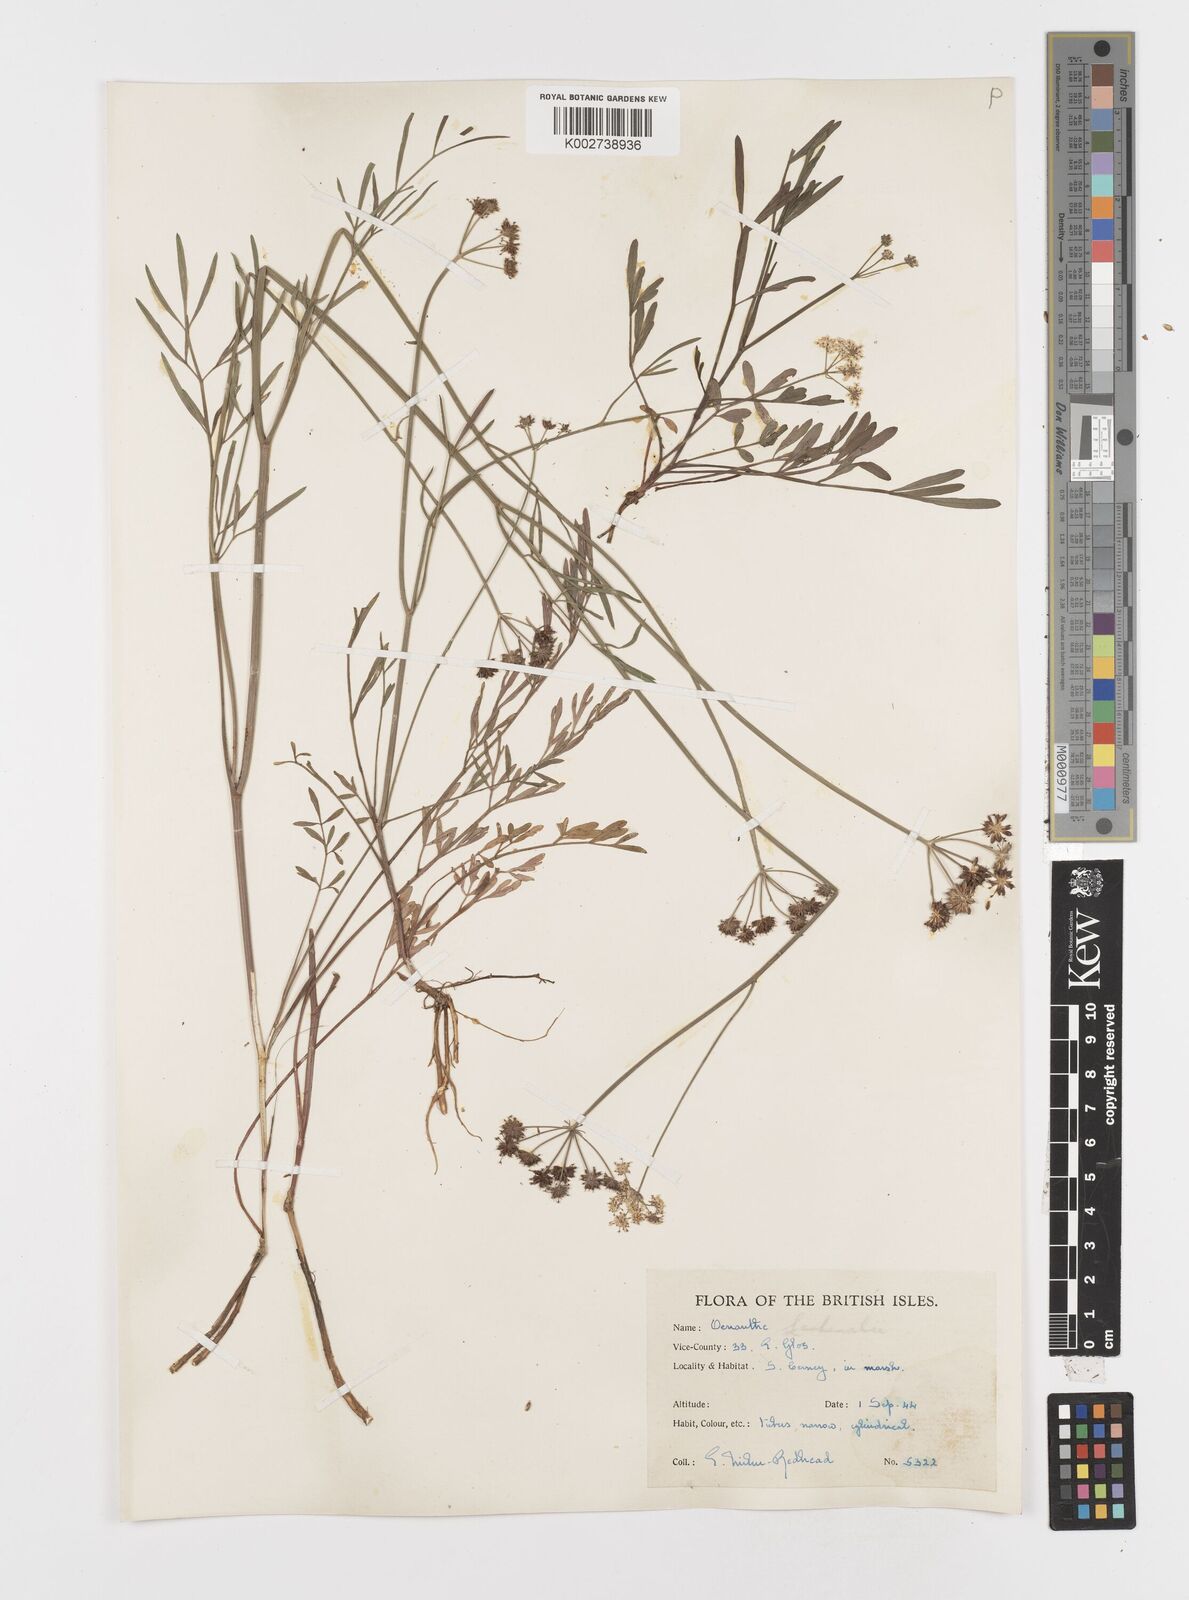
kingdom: Plantae
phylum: Tracheophyta
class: Magnoliopsida
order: Apiales
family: Apiaceae
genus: Oenanthe
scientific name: Oenanthe lachenalii
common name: Parsley water-dropwort
